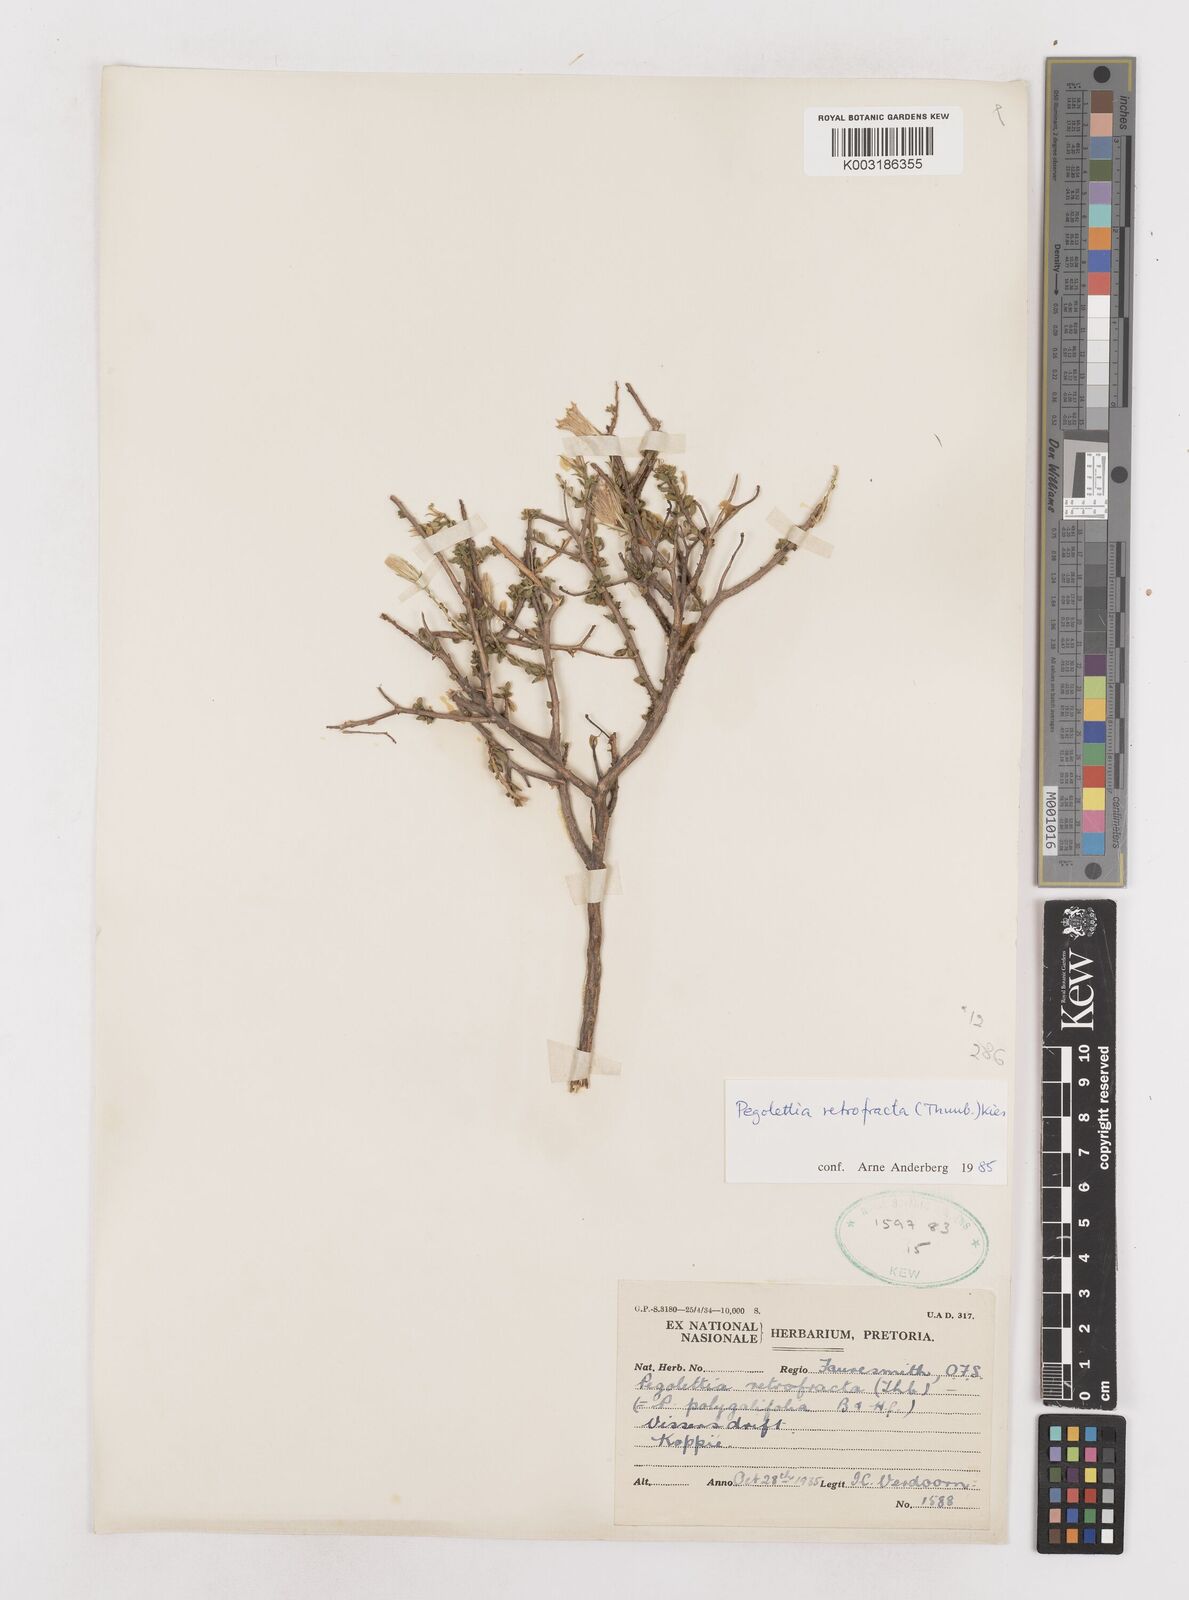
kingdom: Plantae
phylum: Tracheophyta
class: Magnoliopsida
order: Asterales
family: Asteraceae
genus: Pegolettia
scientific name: Pegolettia retrofracta
